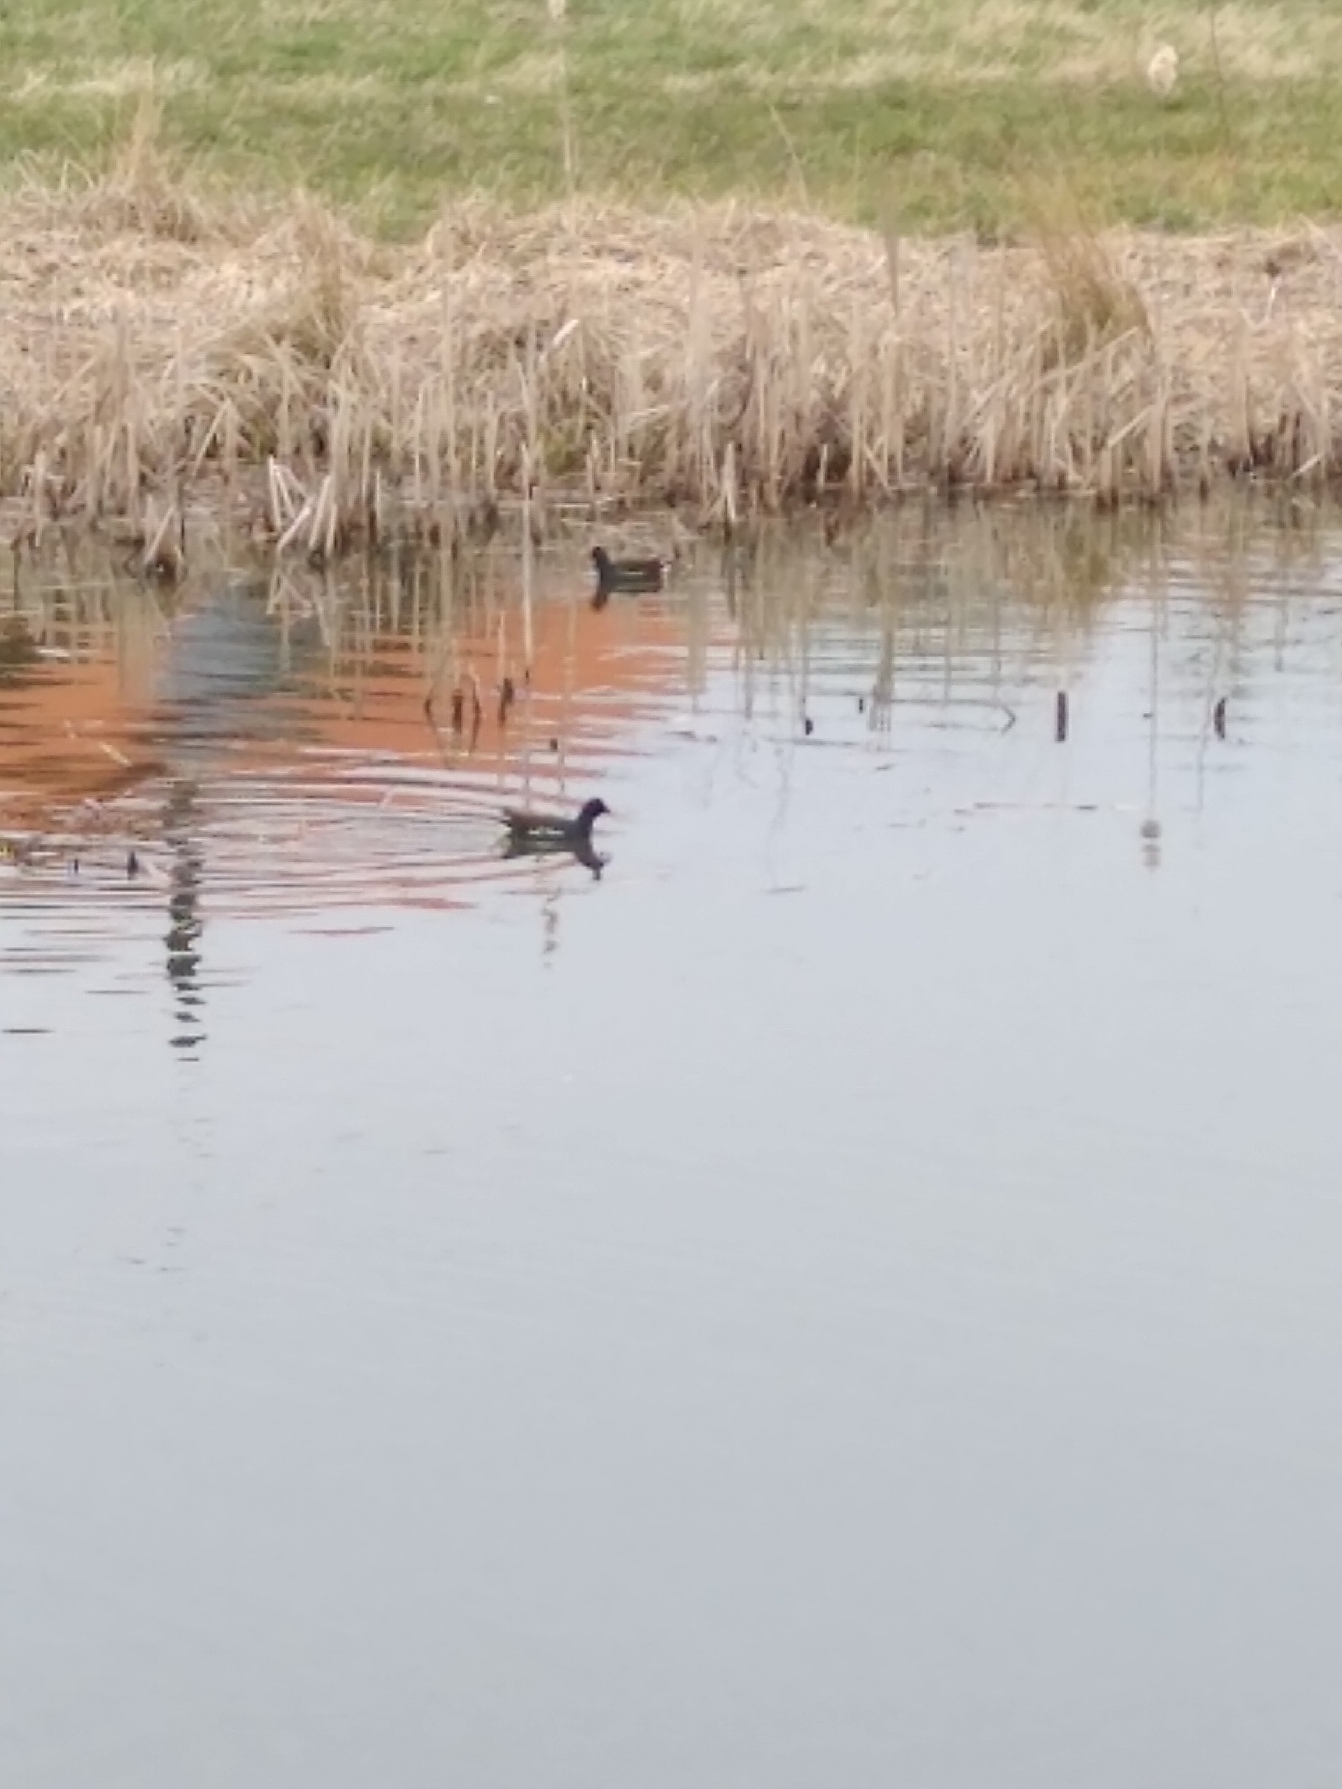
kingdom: Animalia
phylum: Chordata
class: Aves
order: Gruiformes
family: Rallidae
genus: Gallinula
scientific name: Gallinula chloropus
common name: Grønbenet rørhøne
